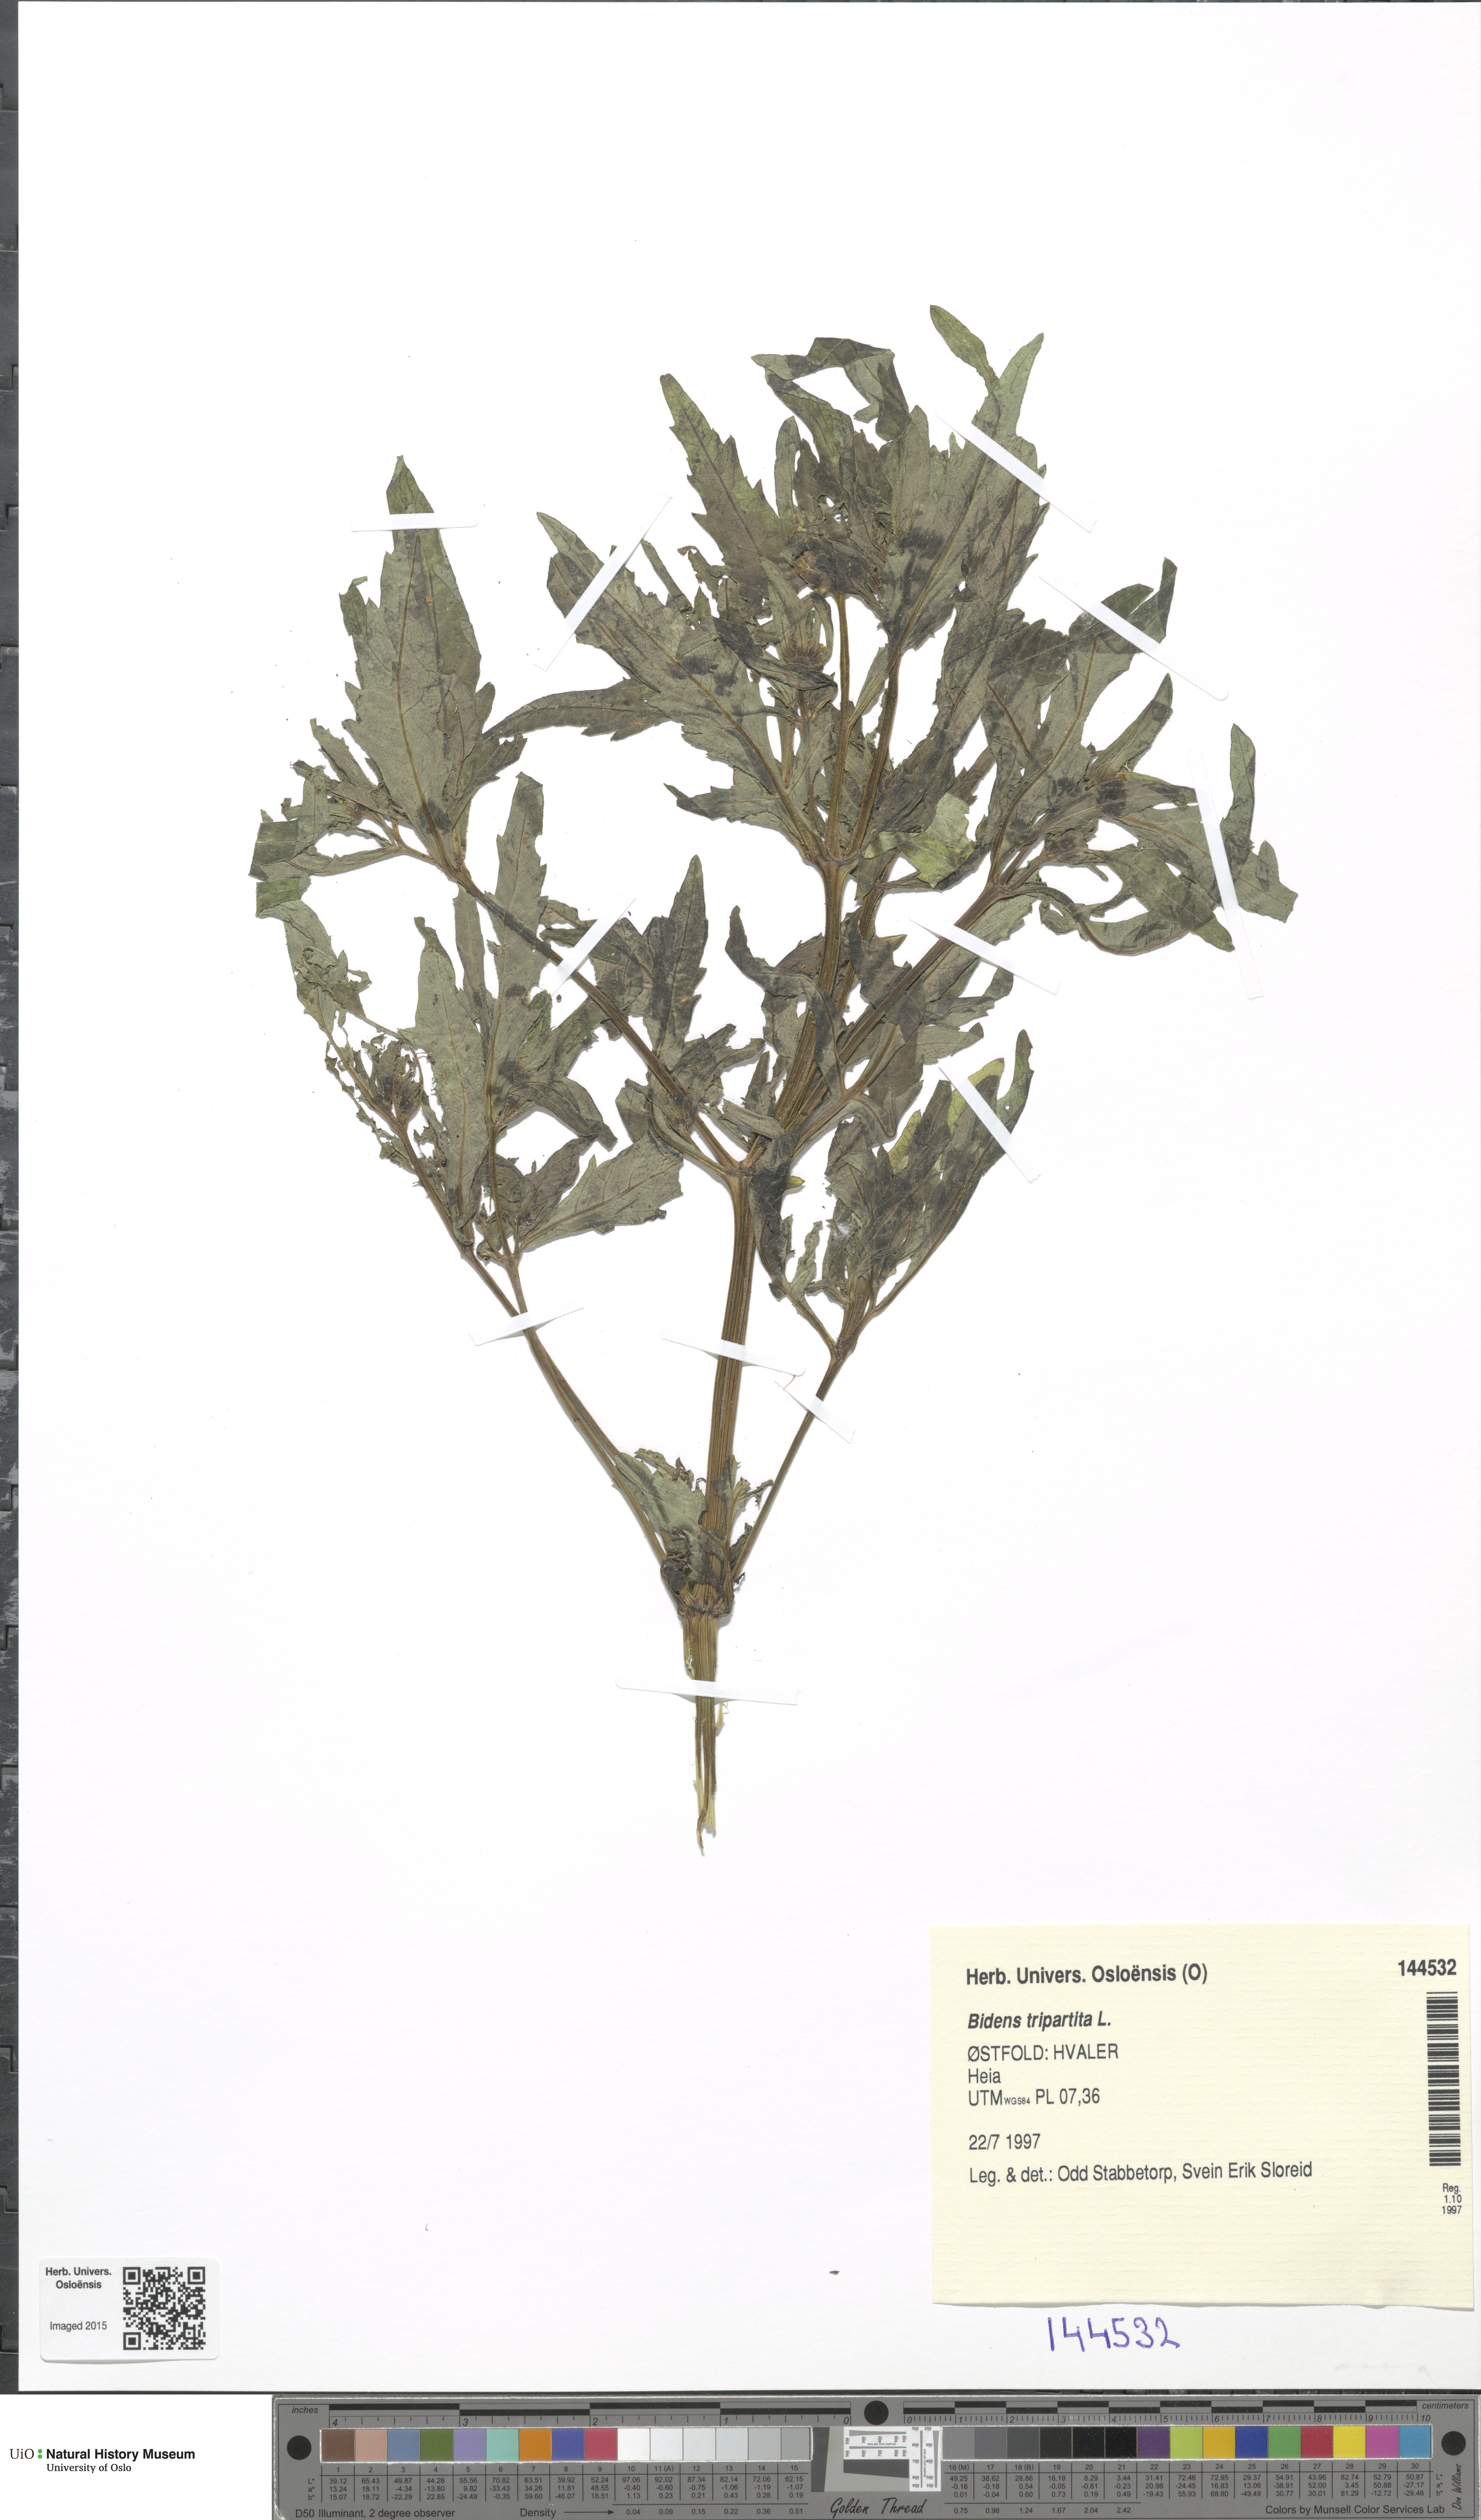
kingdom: Plantae
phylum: Tracheophyta
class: Magnoliopsida
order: Asterales
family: Asteraceae
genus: Bidens
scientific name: Bidens tripartita
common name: Trifid bur-marigold
